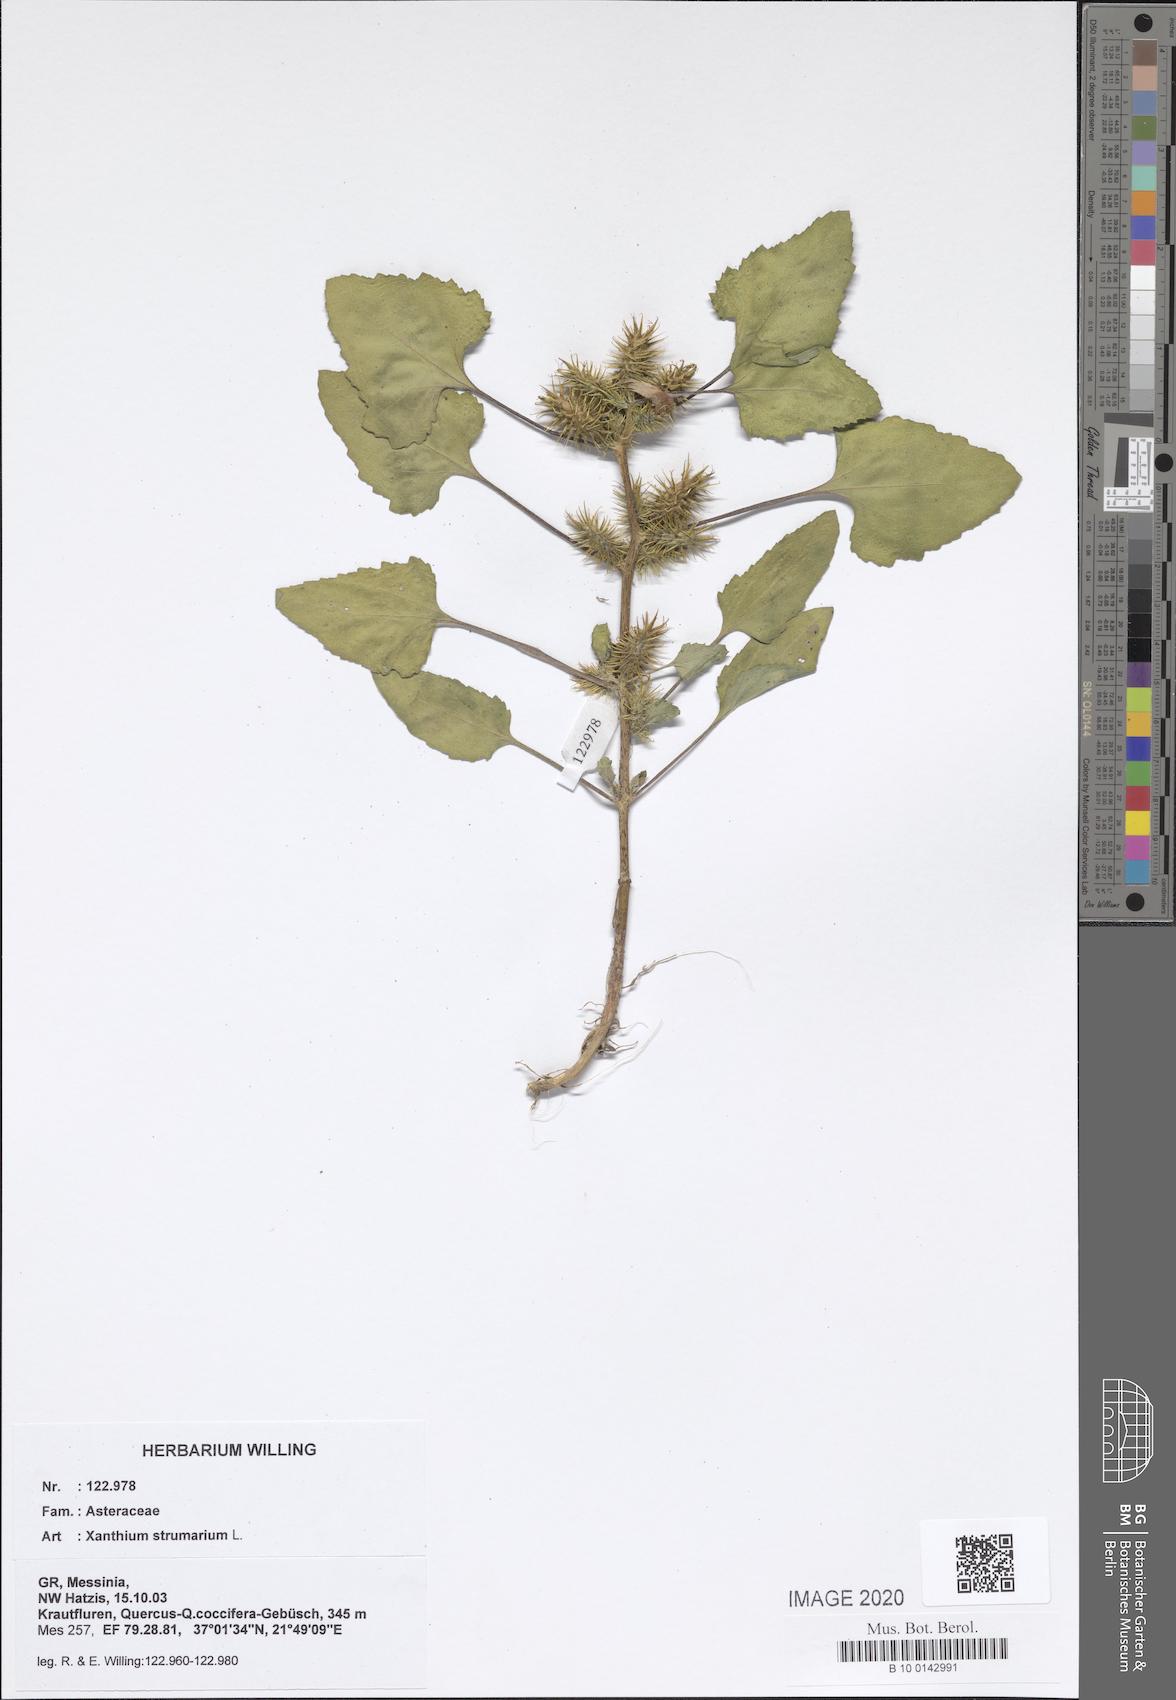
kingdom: Plantae
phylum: Tracheophyta
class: Magnoliopsida
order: Asterales
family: Asteraceae
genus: Xanthium
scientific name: Xanthium strumarium
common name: Rough cocklebur
